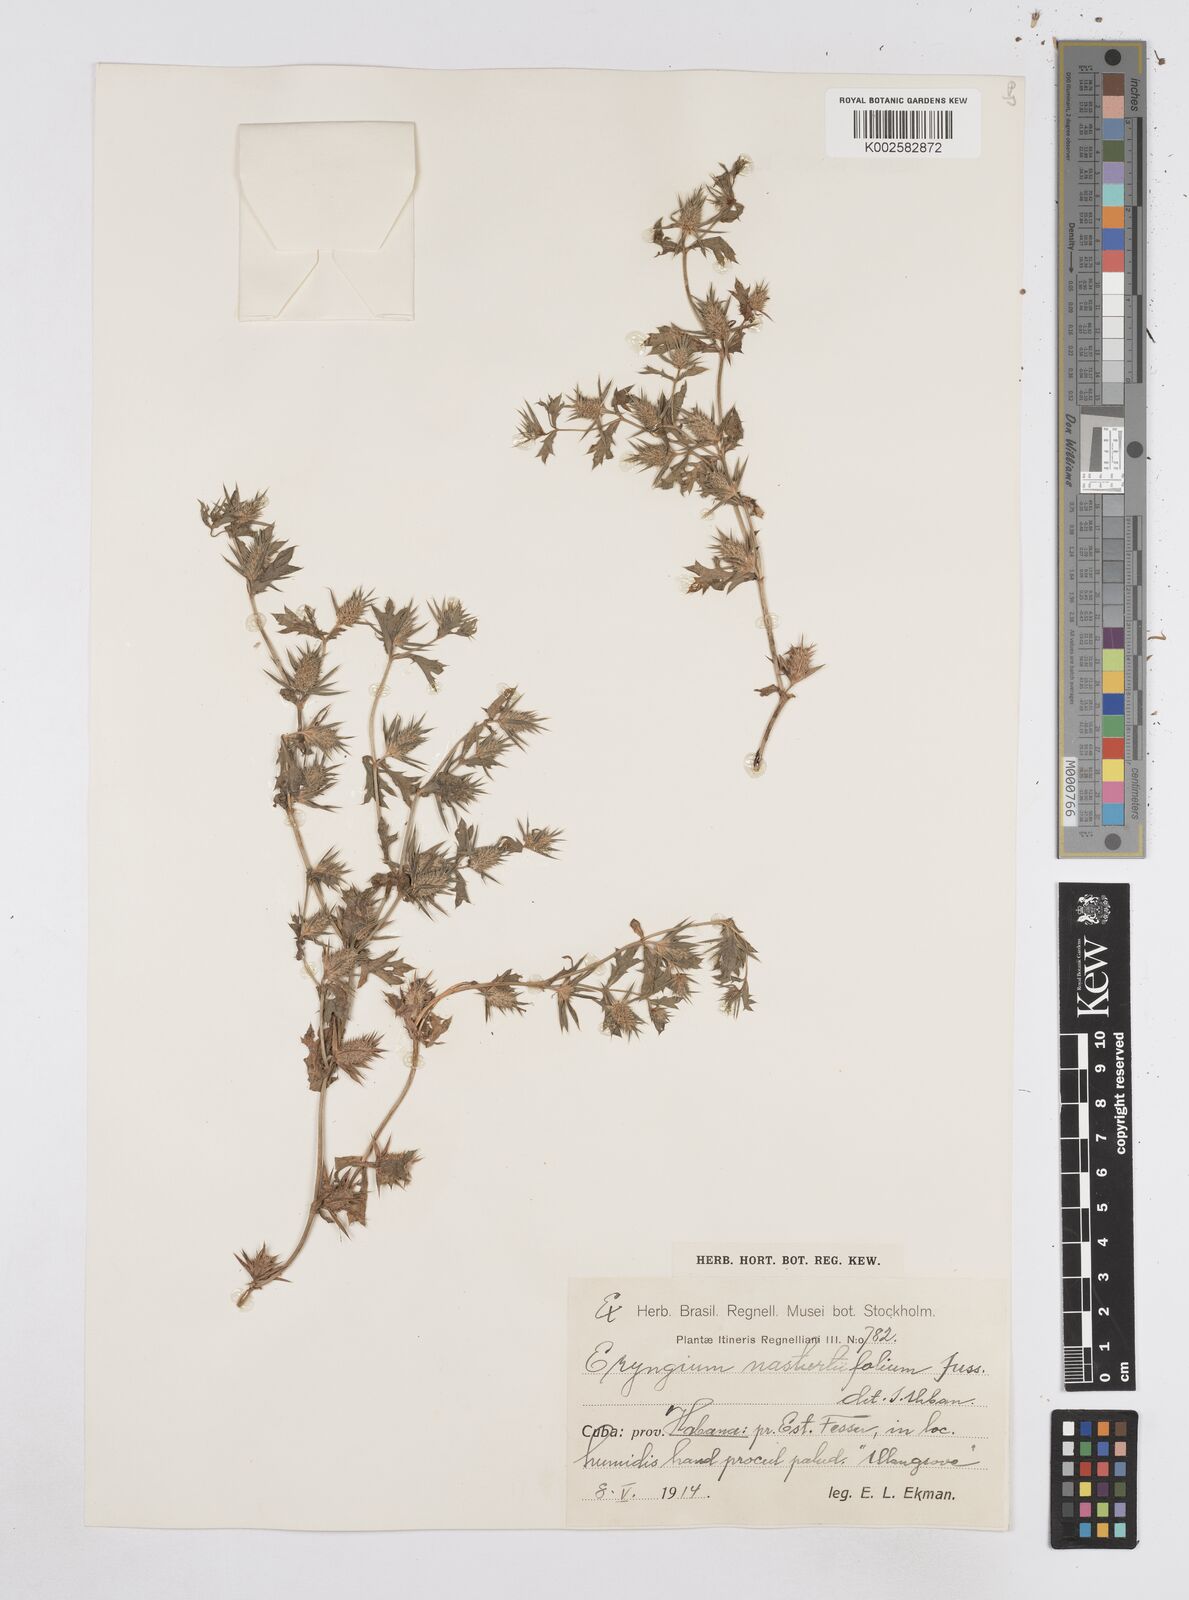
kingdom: Plantae
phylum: Tracheophyta
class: Magnoliopsida
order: Apiales
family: Apiaceae
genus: Eryngium
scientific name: Eryngium nasturtiifolium
